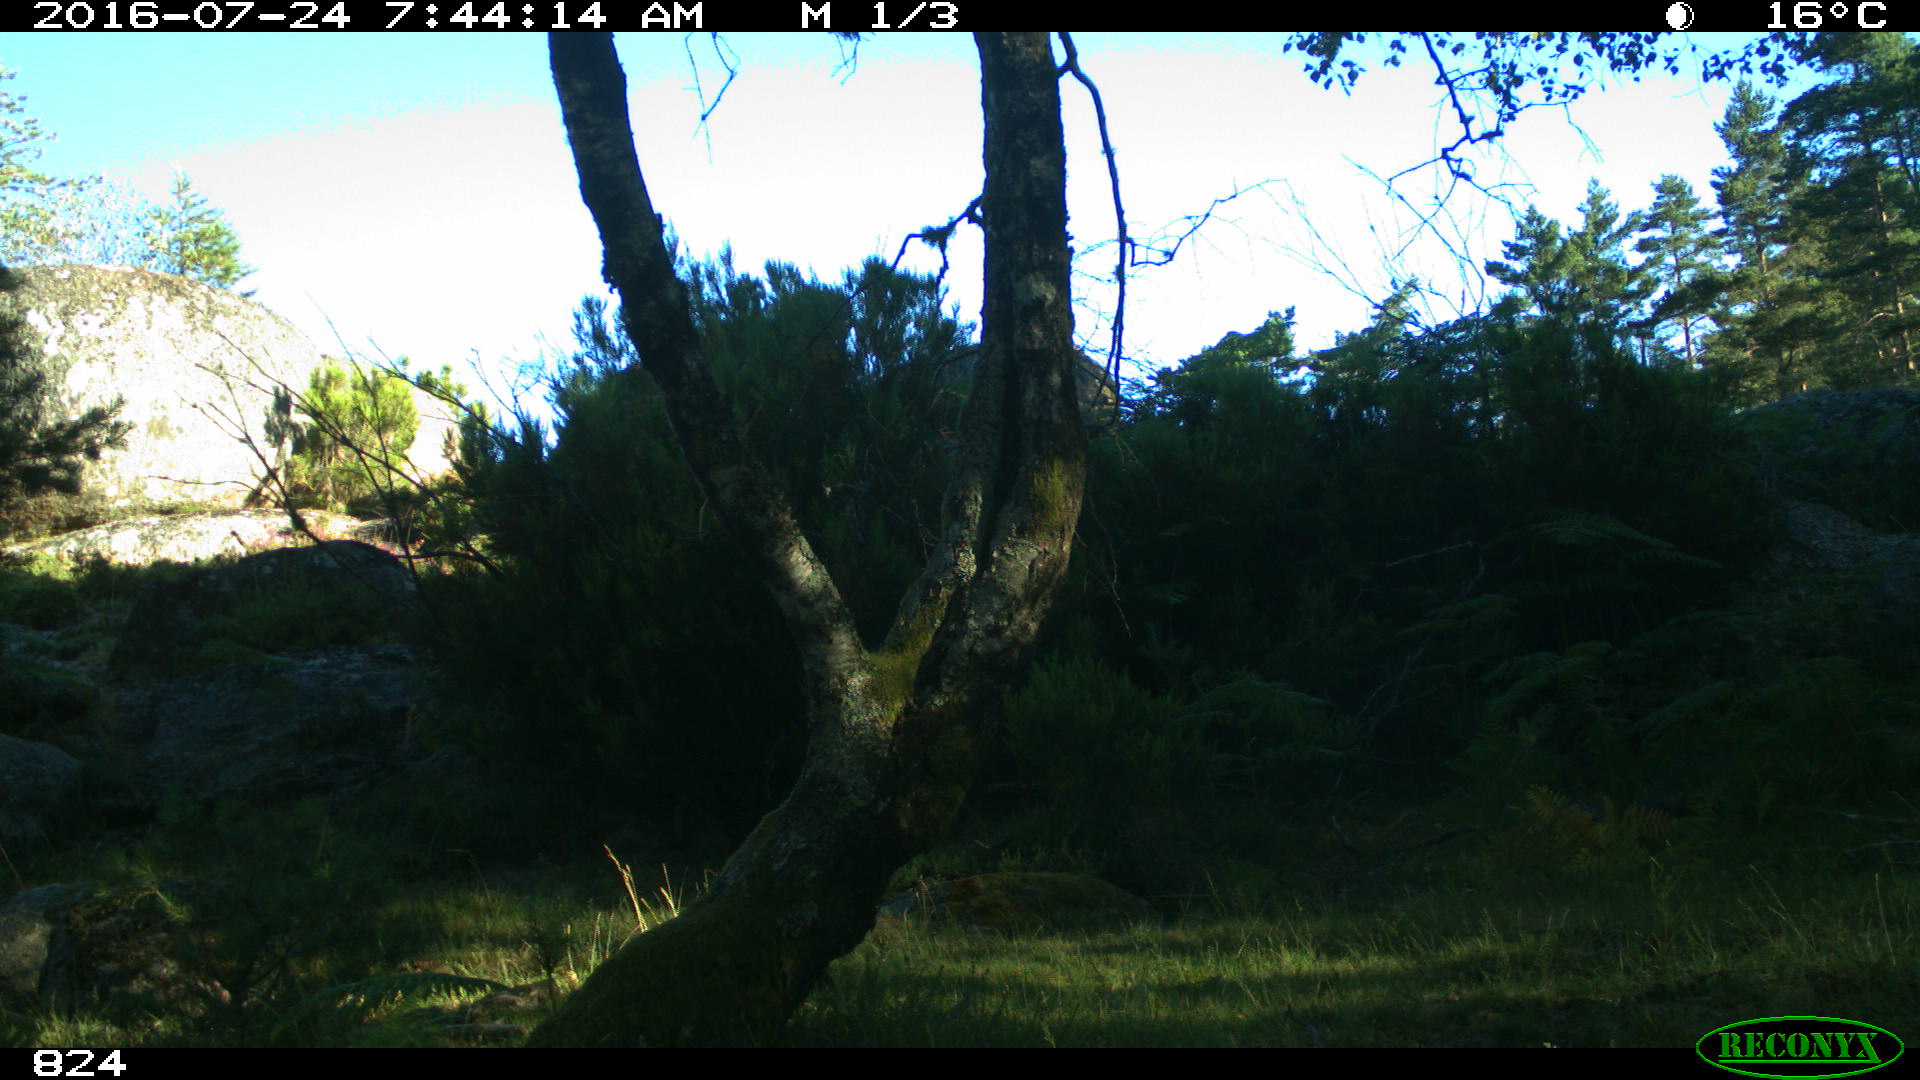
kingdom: Animalia
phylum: Chordata
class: Mammalia
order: Artiodactyla
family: Bovidae
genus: Bos
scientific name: Bos taurus
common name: Domesticated cattle
